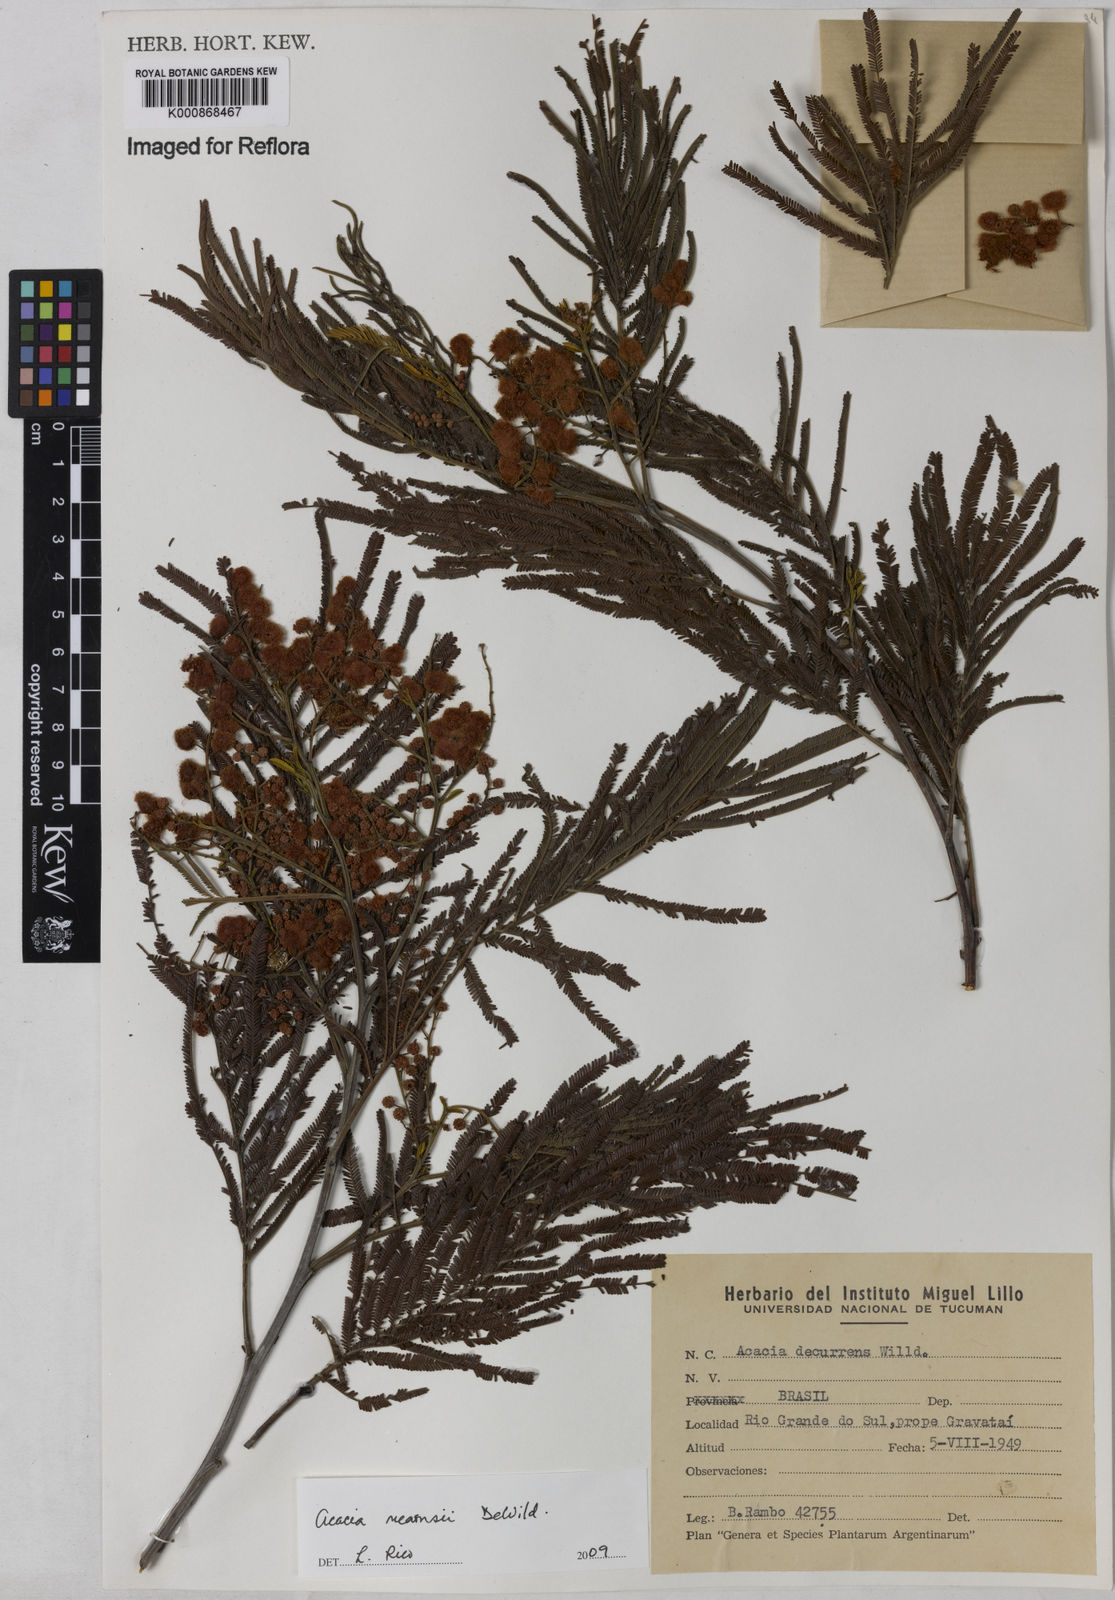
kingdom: Plantae
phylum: Tracheophyta
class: Magnoliopsida
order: Fabales
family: Fabaceae
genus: Acacia
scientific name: Acacia mearnsii
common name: Black wattle
